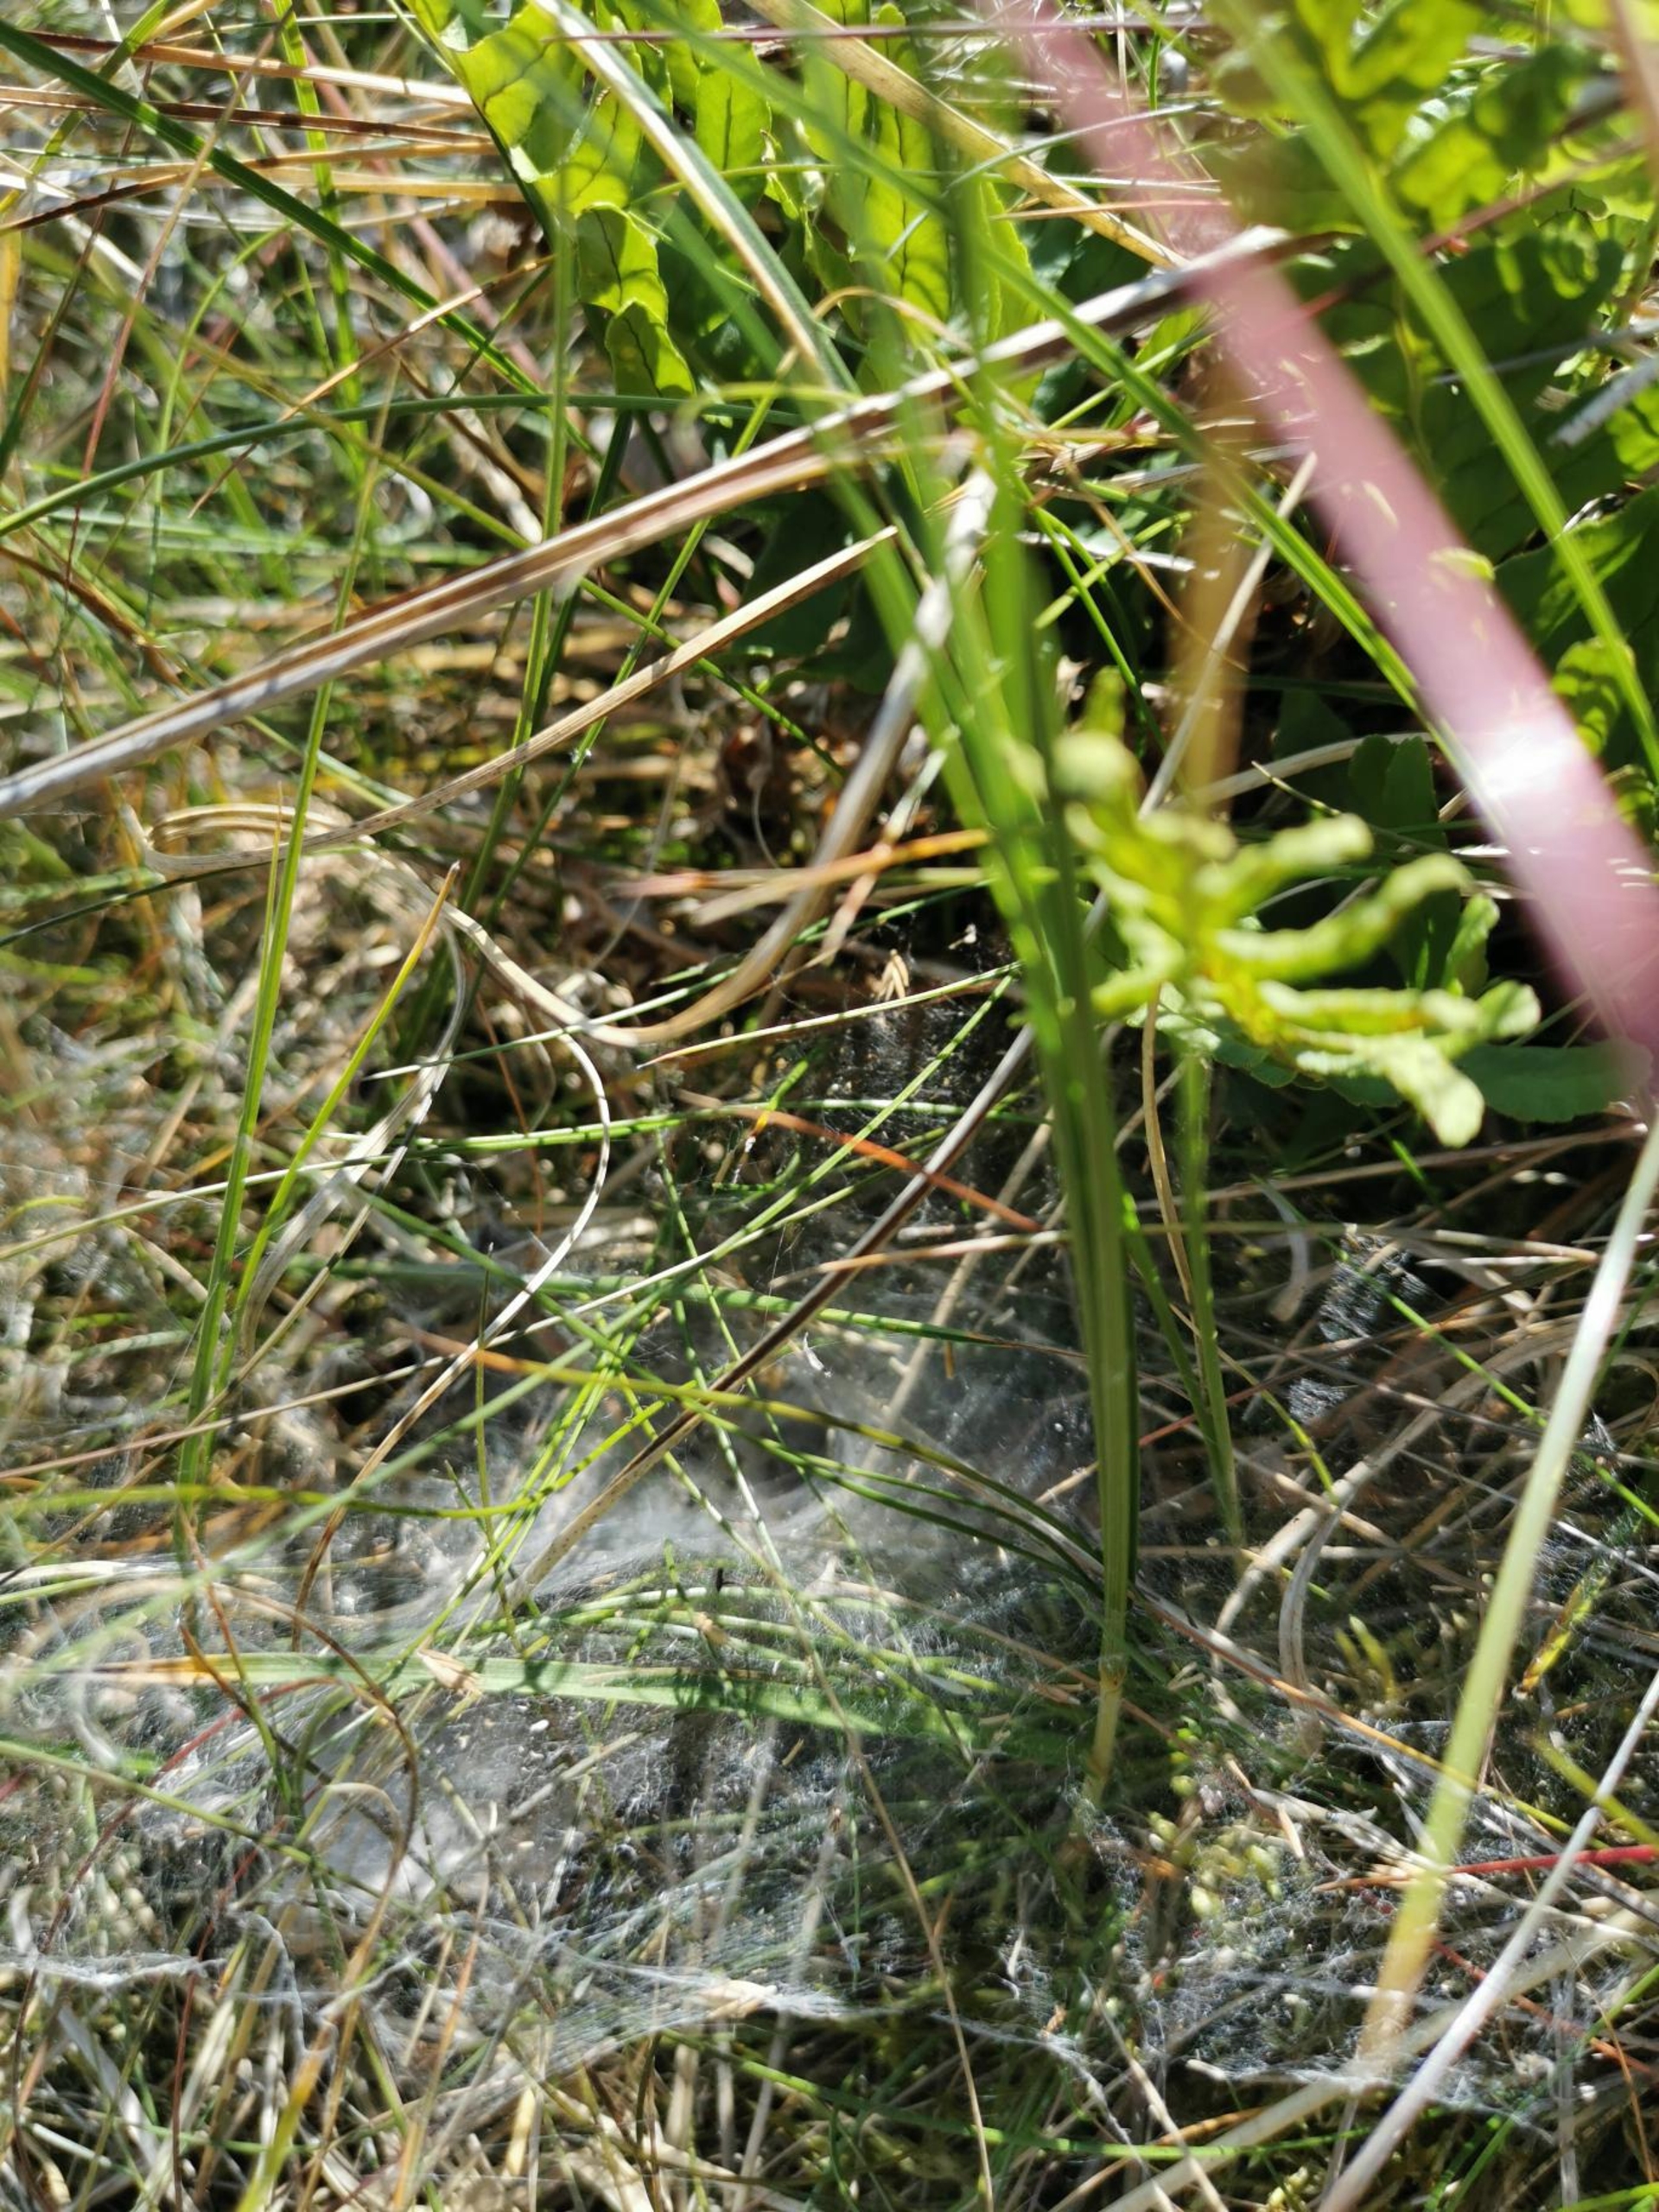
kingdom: Animalia
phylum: Arthropoda
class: Arachnida
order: Araneae
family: Agelenidae
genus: Agelena
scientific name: Agelena labyrinthica
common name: Labyrintedderkop
